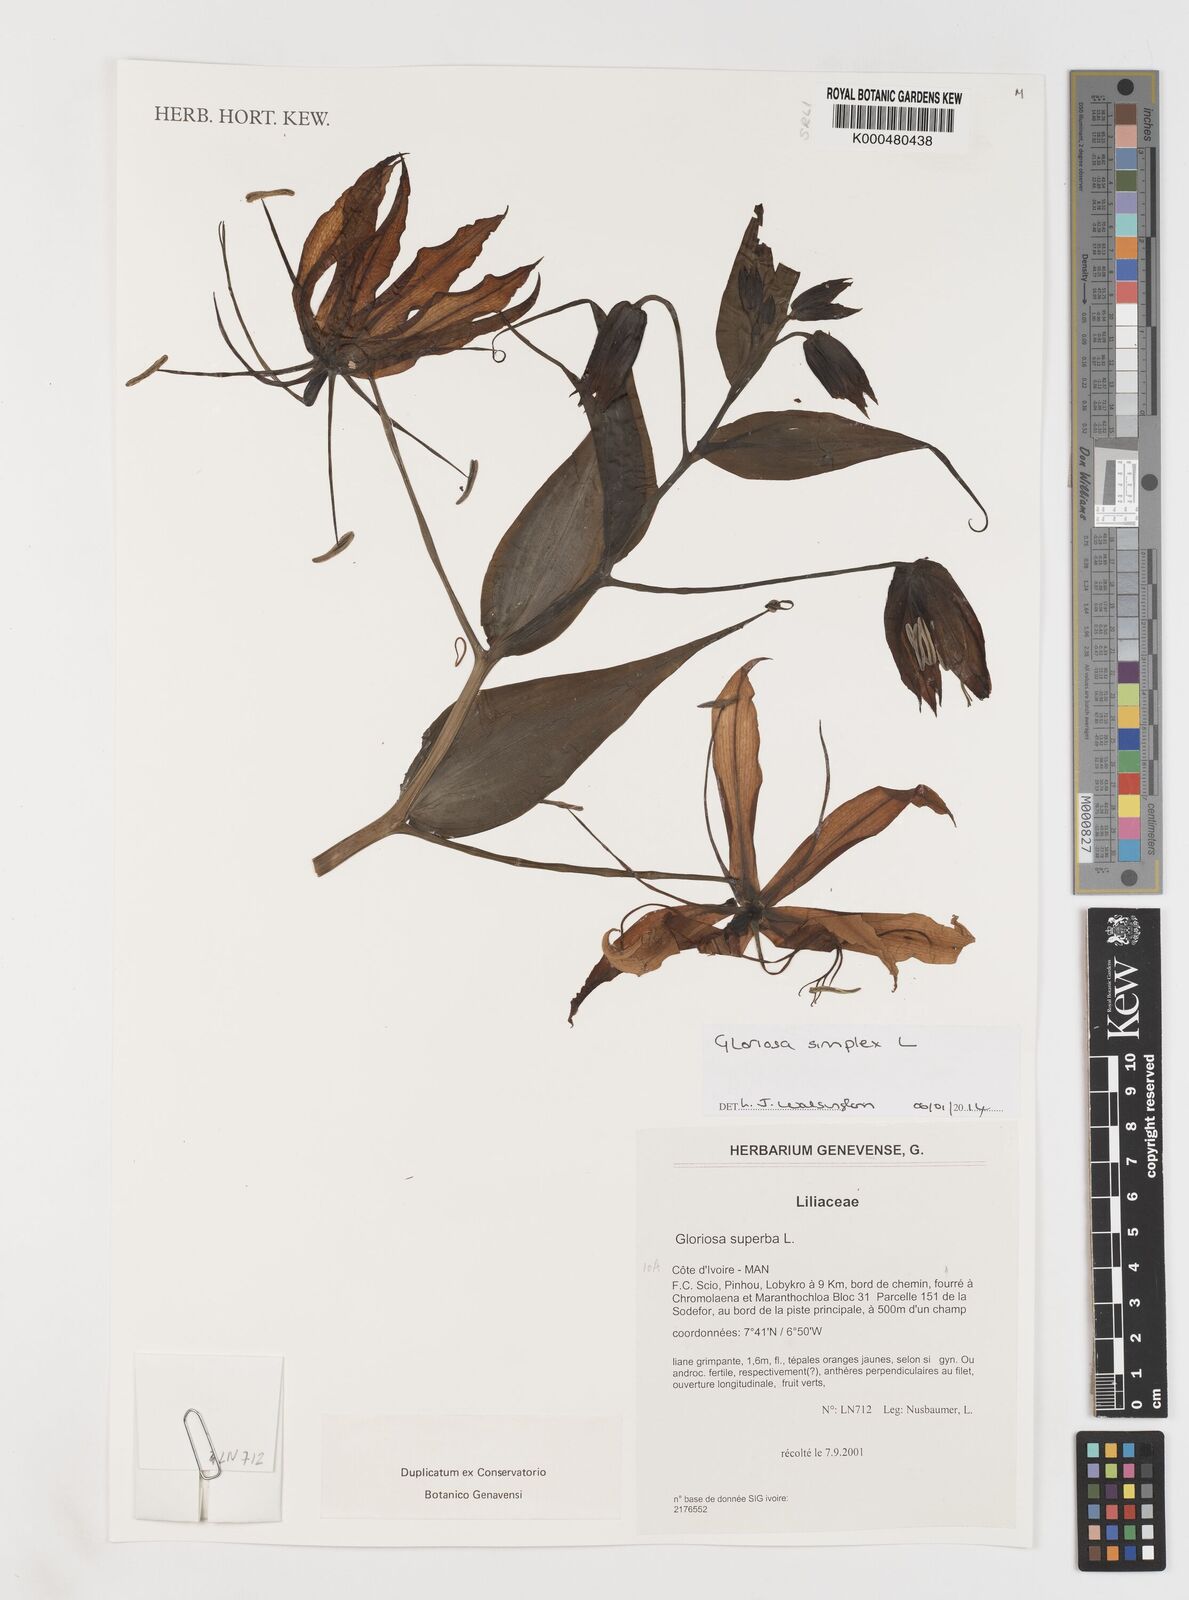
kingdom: Plantae
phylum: Tracheophyta
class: Liliopsida
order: Liliales
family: Colchicaceae
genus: Gloriosa
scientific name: Gloriosa simplex
